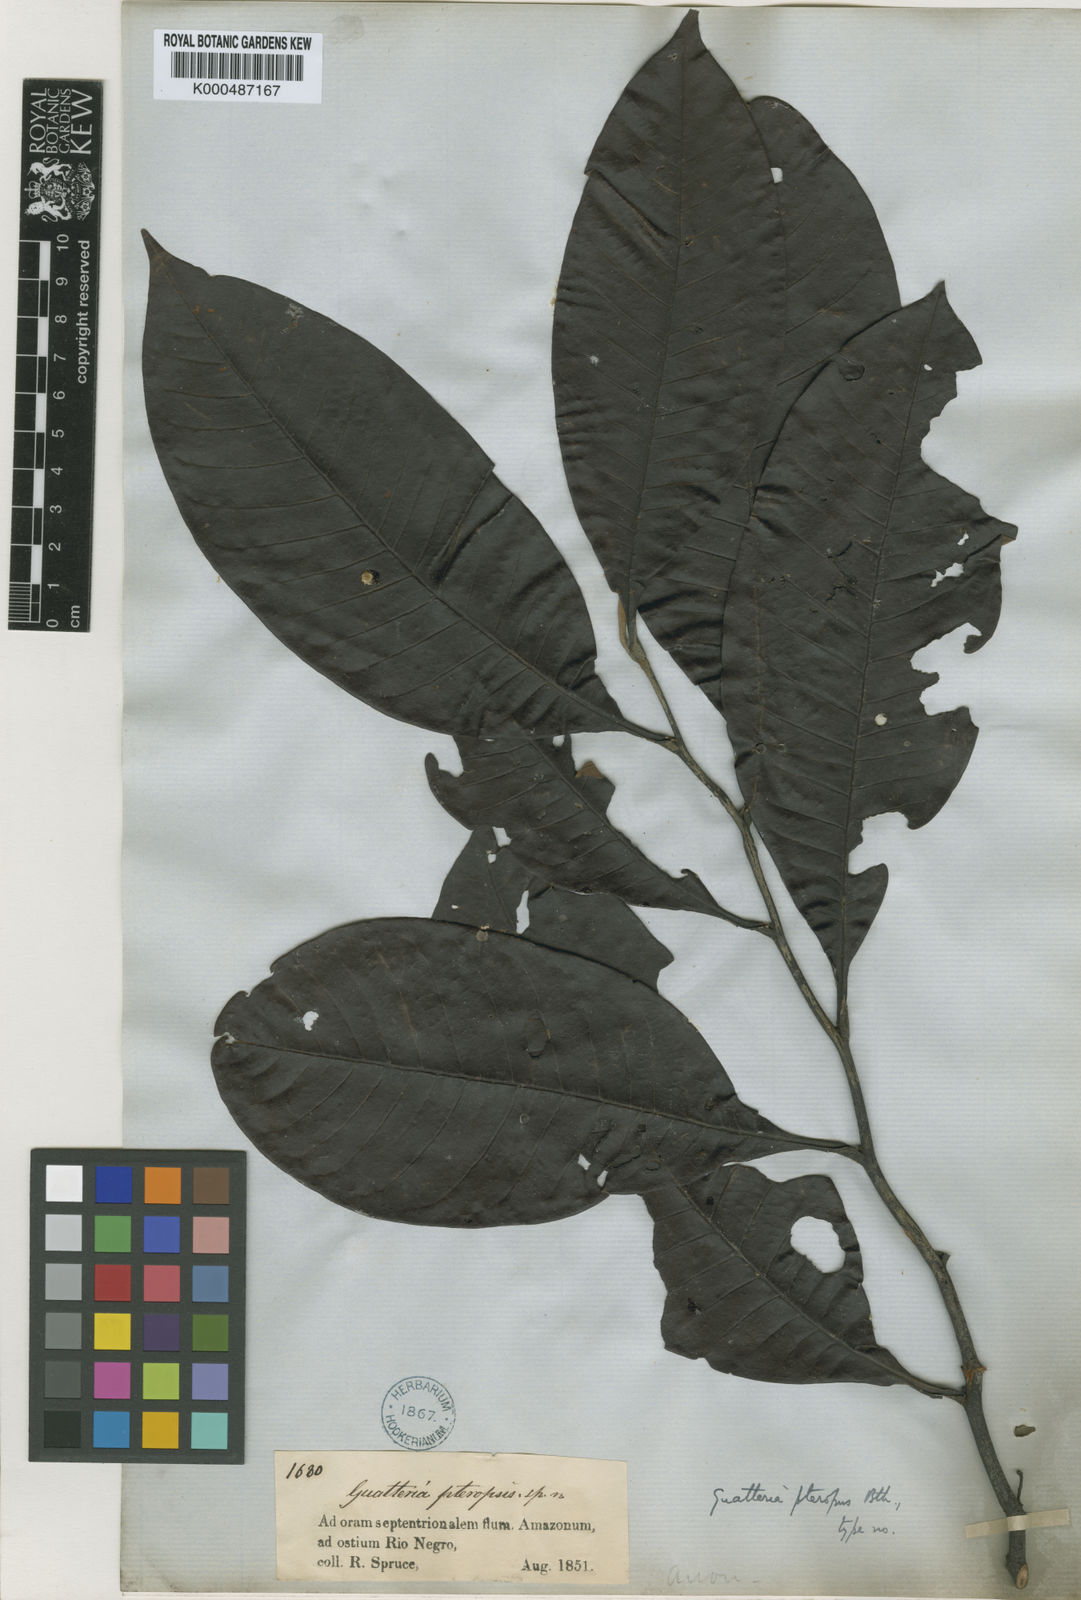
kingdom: Plantae
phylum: Tracheophyta
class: Magnoliopsida
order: Magnoliales
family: Annonaceae
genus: Guatteria
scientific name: Guatteria punctata
